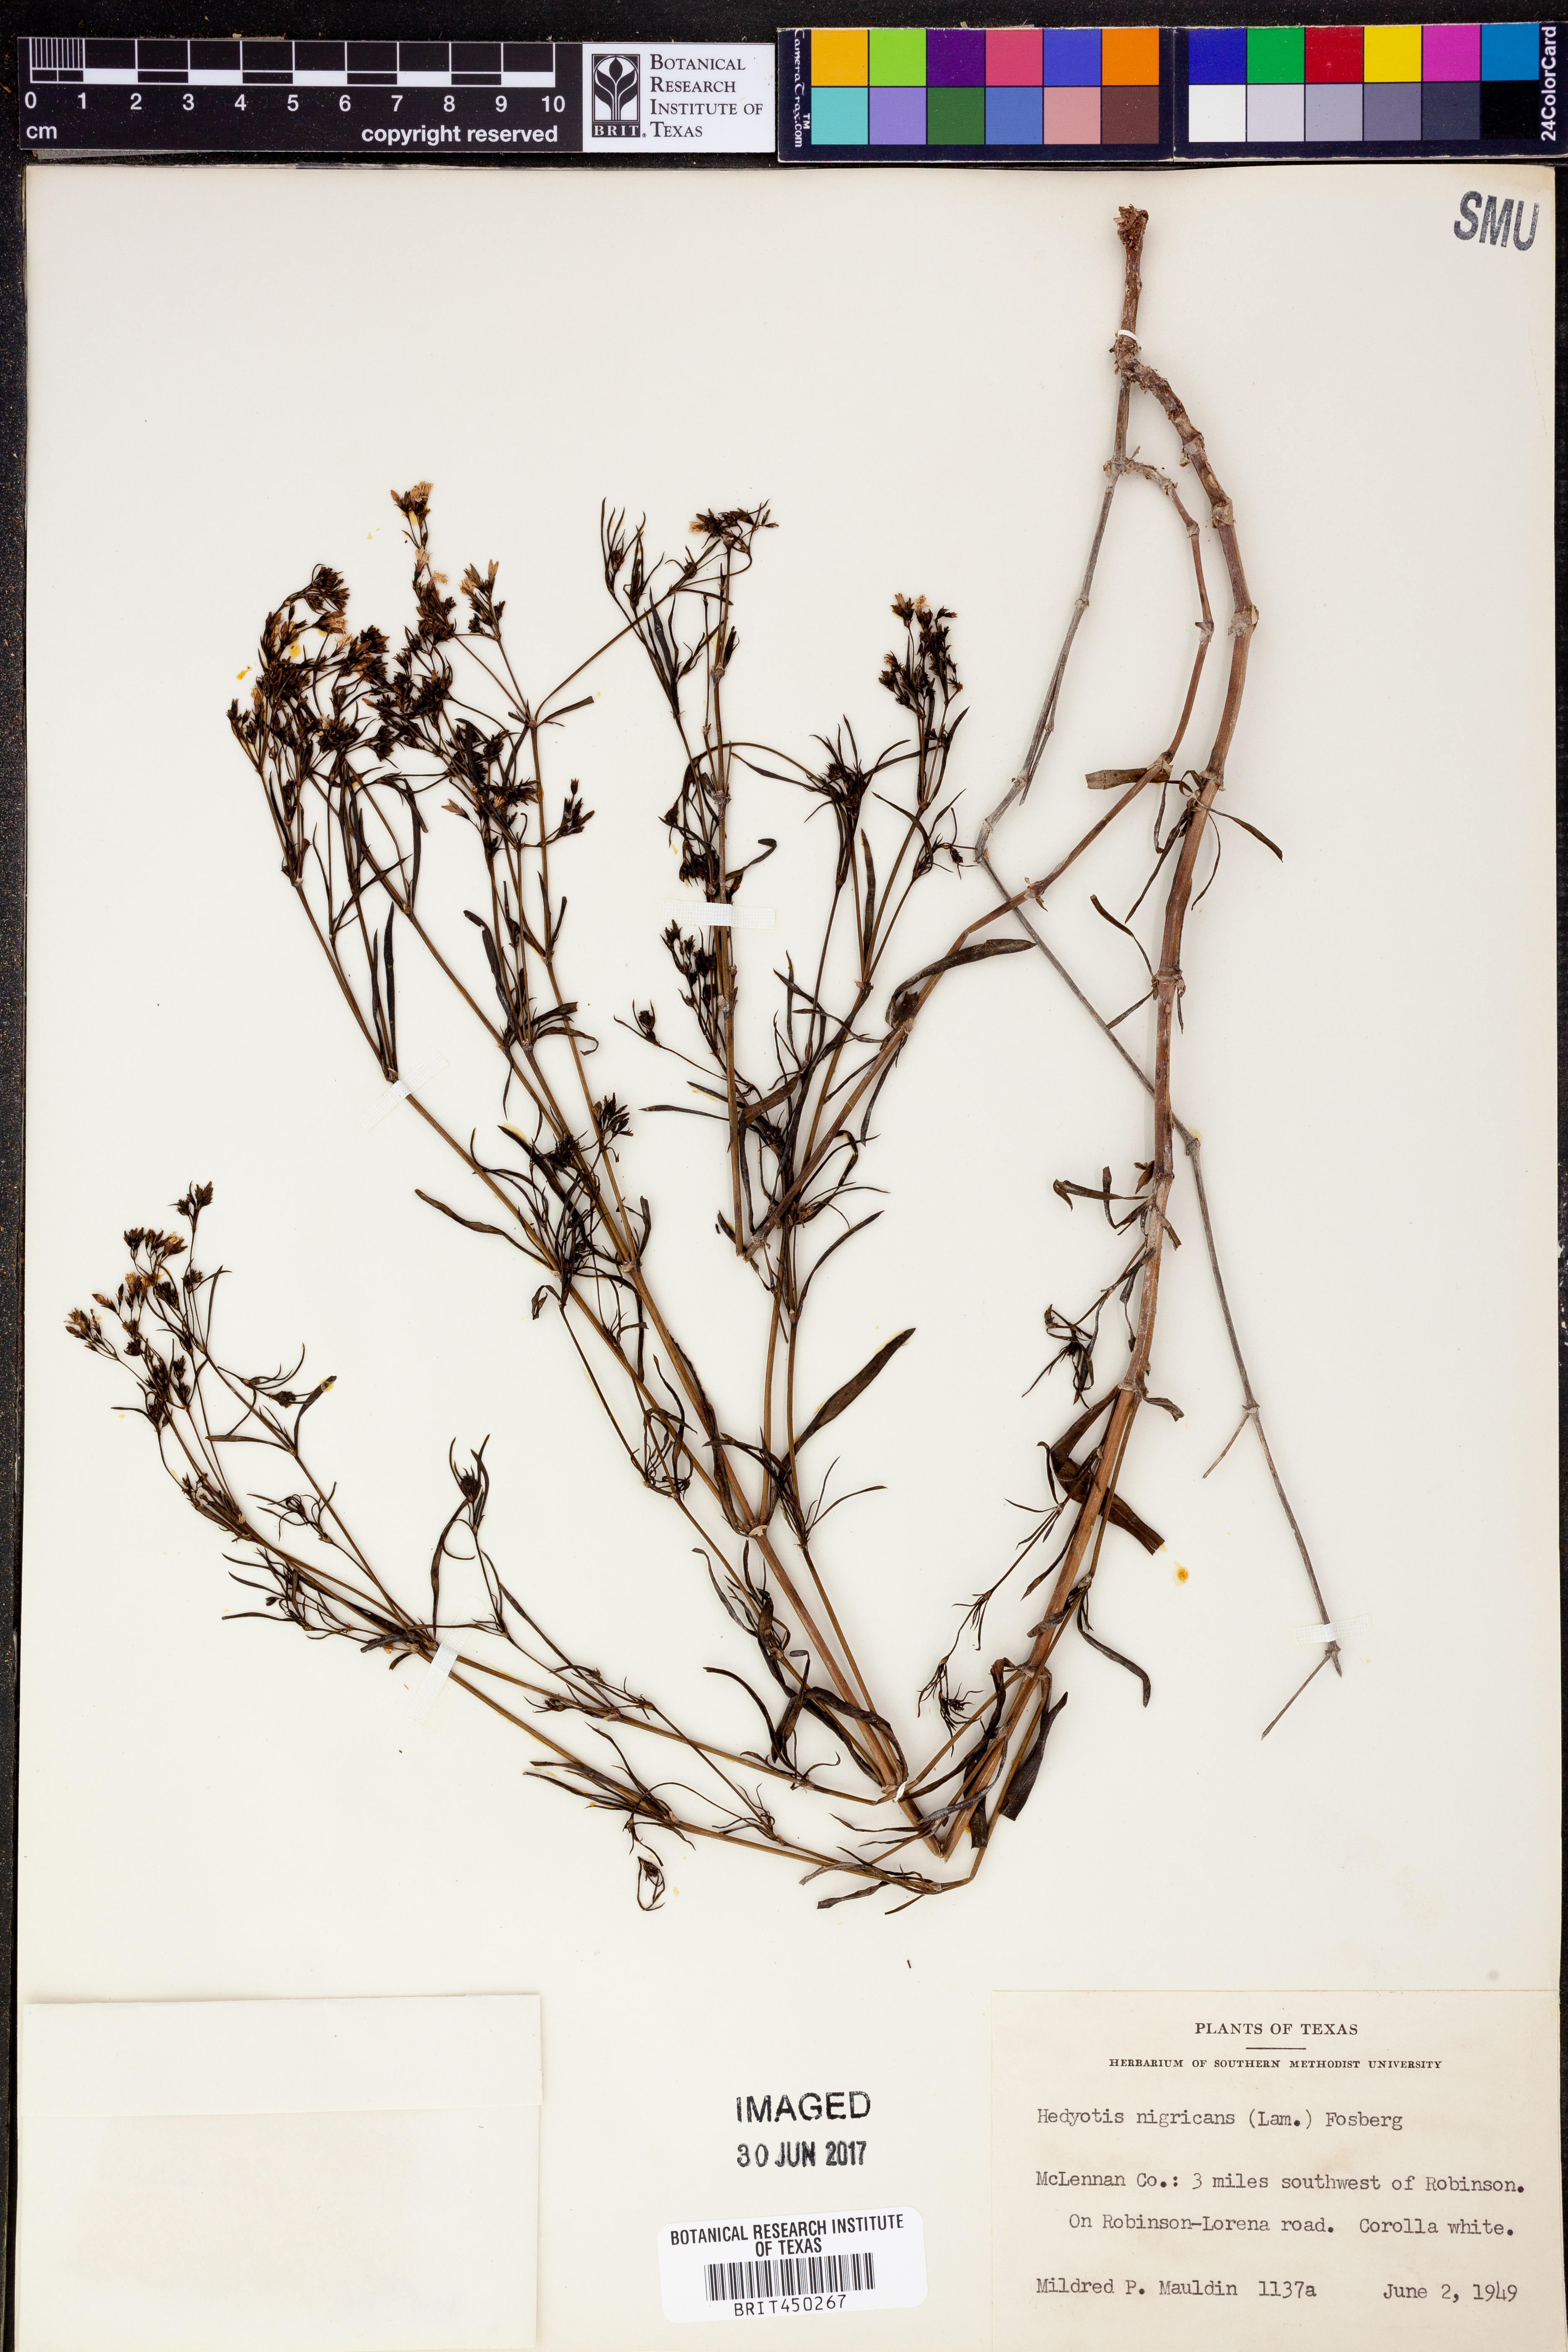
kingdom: Plantae
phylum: Tracheophyta
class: Magnoliopsida
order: Gentianales
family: Rubiaceae
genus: Stenaria
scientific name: Stenaria nigricans
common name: Diamondflowers
